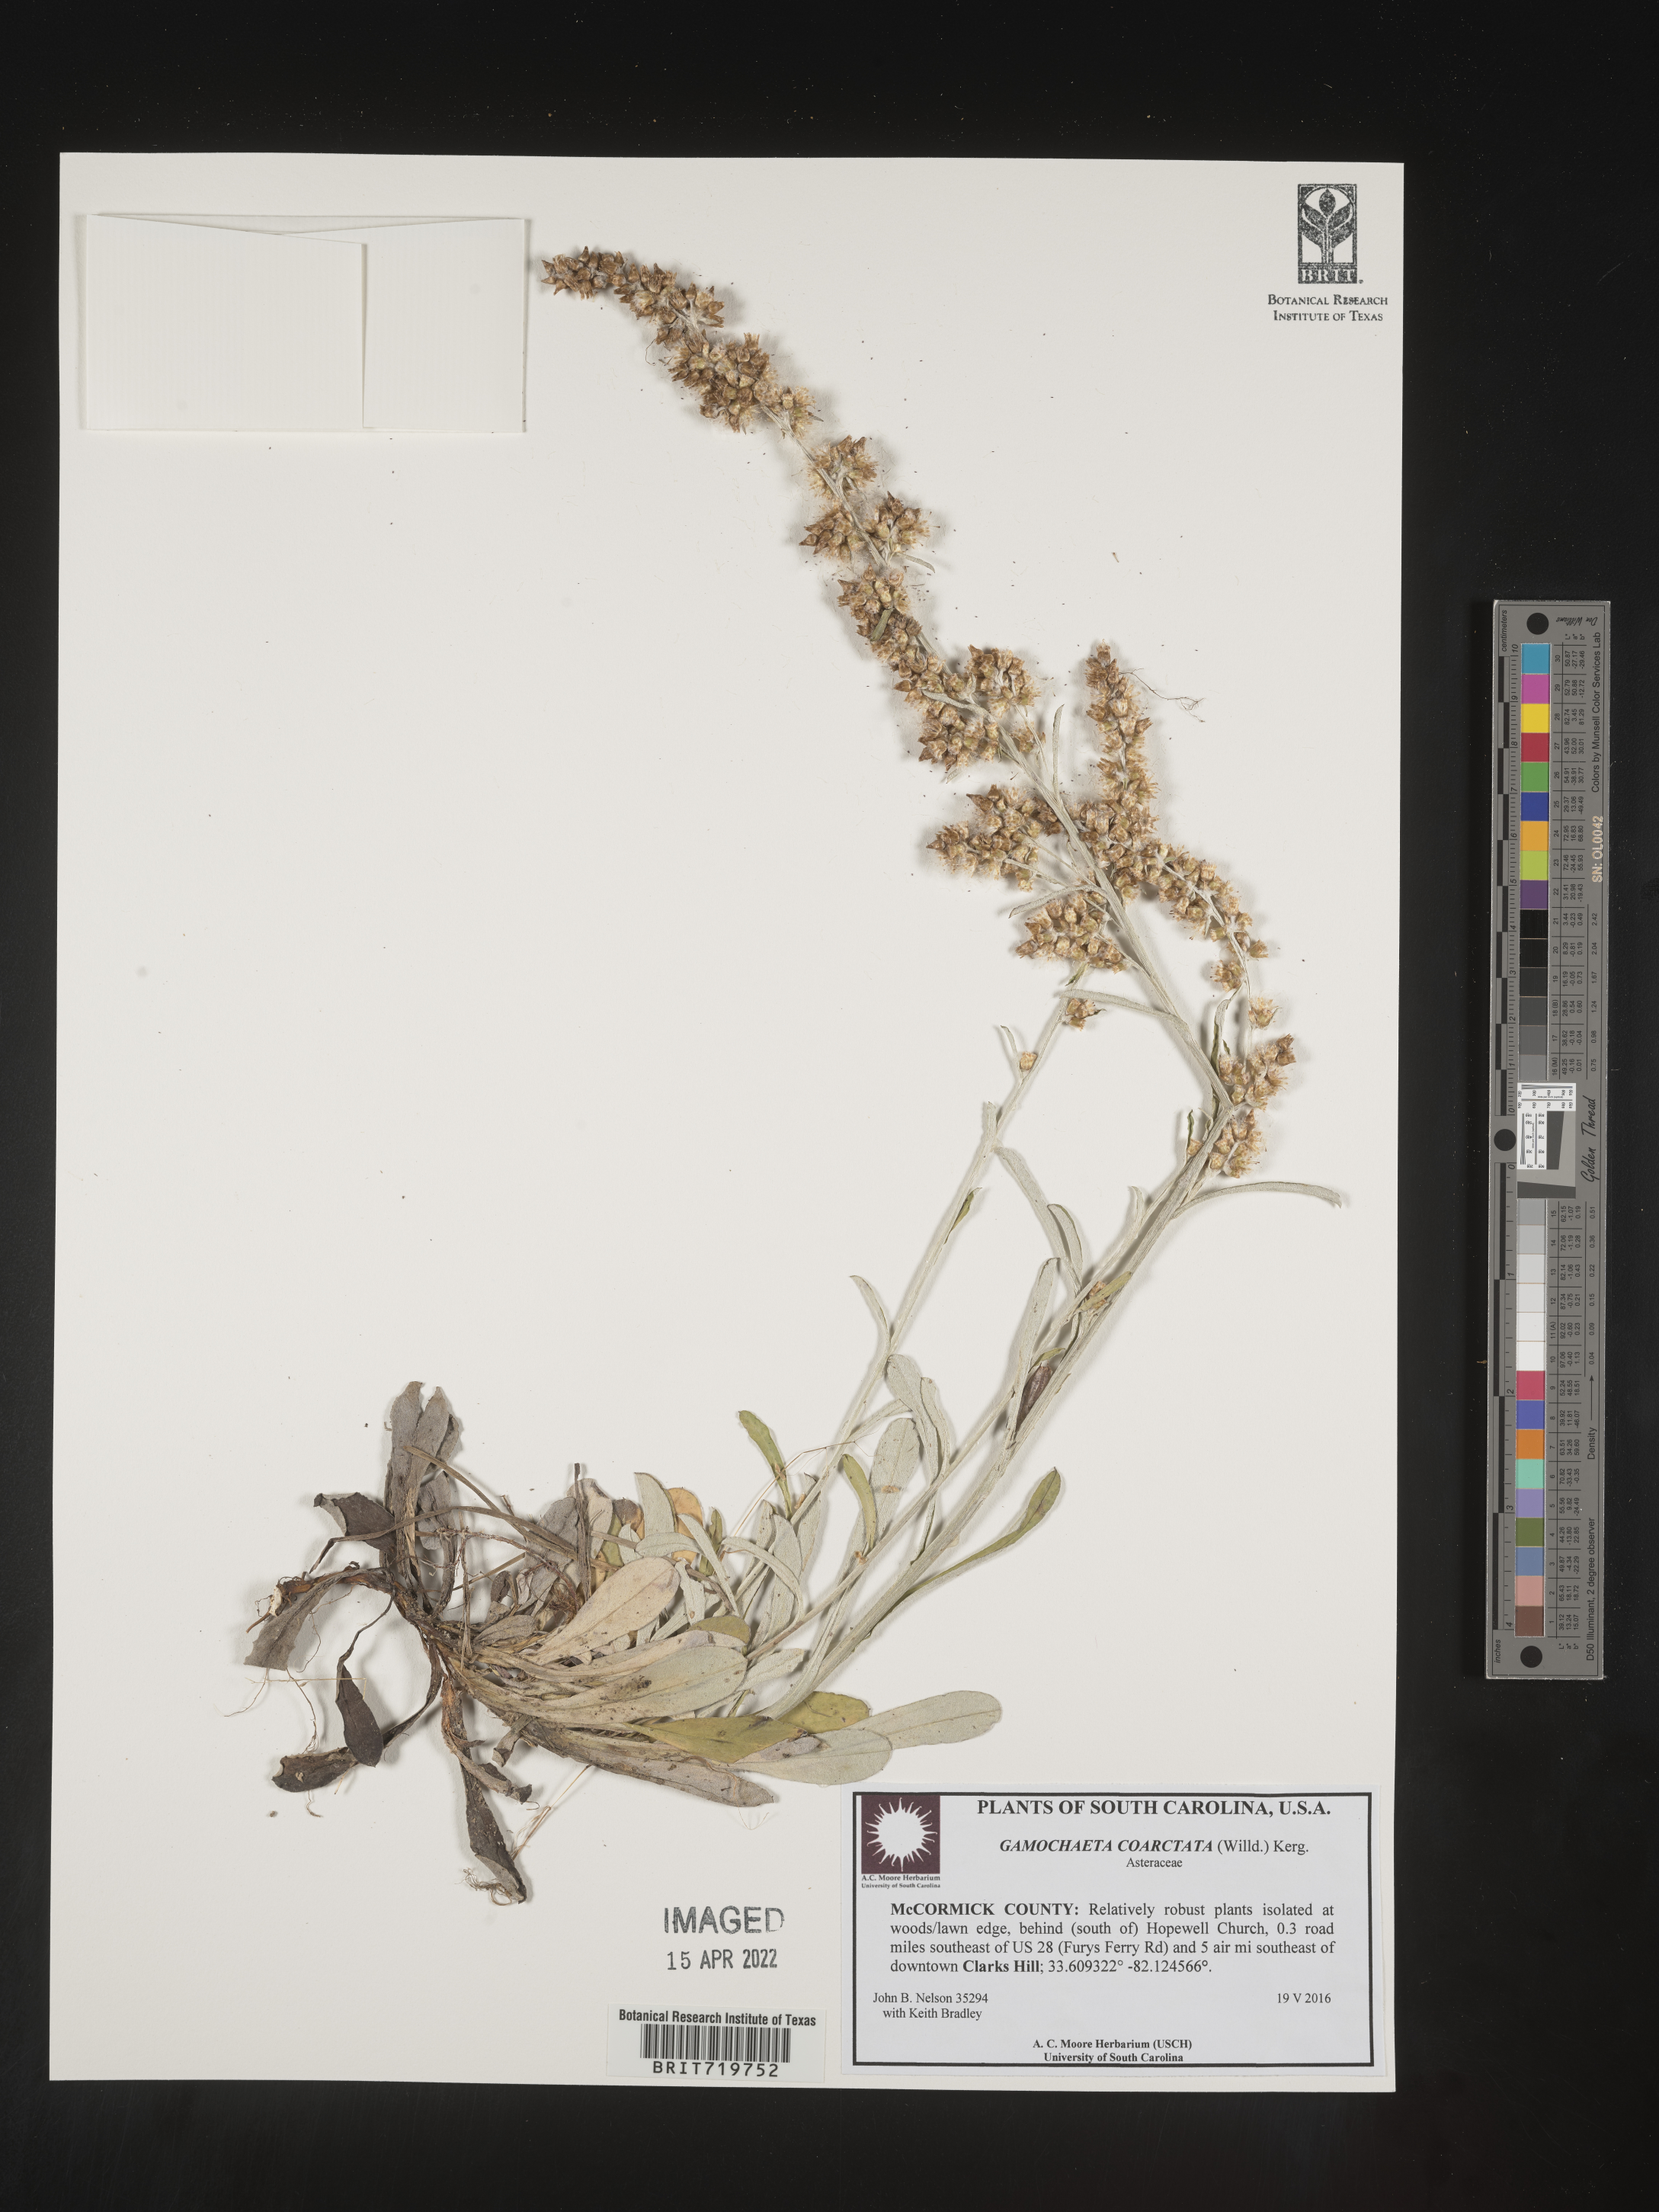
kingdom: Plantae
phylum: Tracheophyta
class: Magnoliopsida
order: Asterales
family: Asteraceae
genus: Gamochaeta
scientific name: Gamochaeta americana
